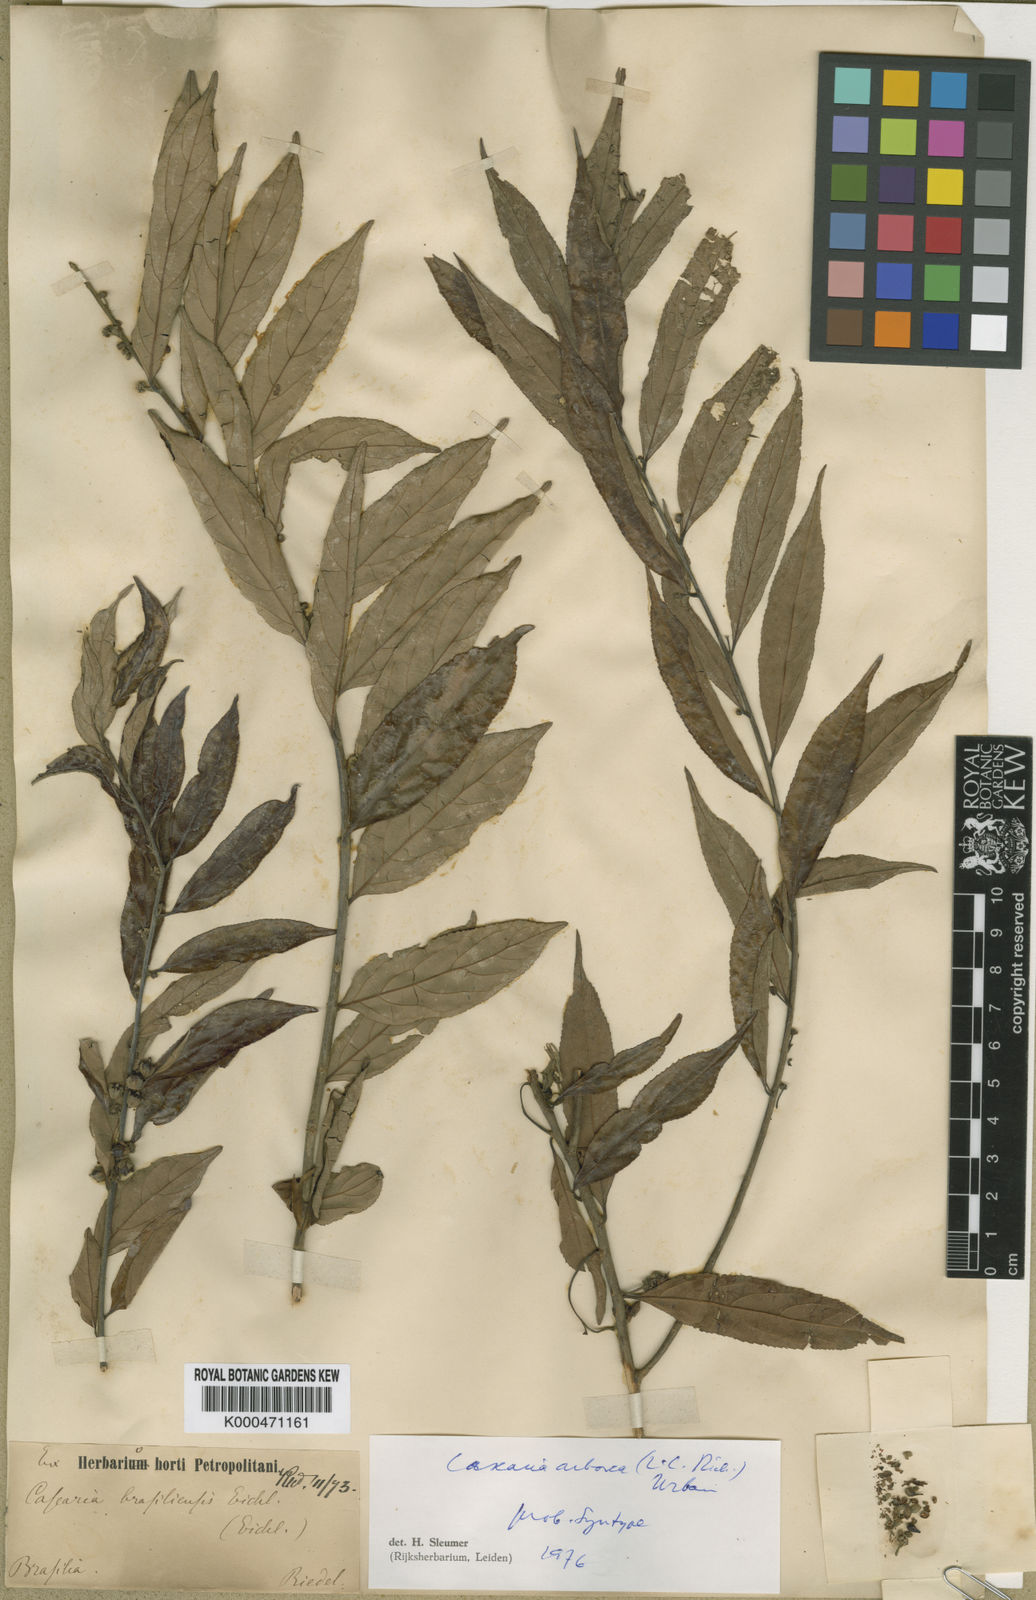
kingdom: Plantae
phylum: Tracheophyta
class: Magnoliopsida
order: Malpighiales
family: Salicaceae
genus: Casearia
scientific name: Casearia arborea
